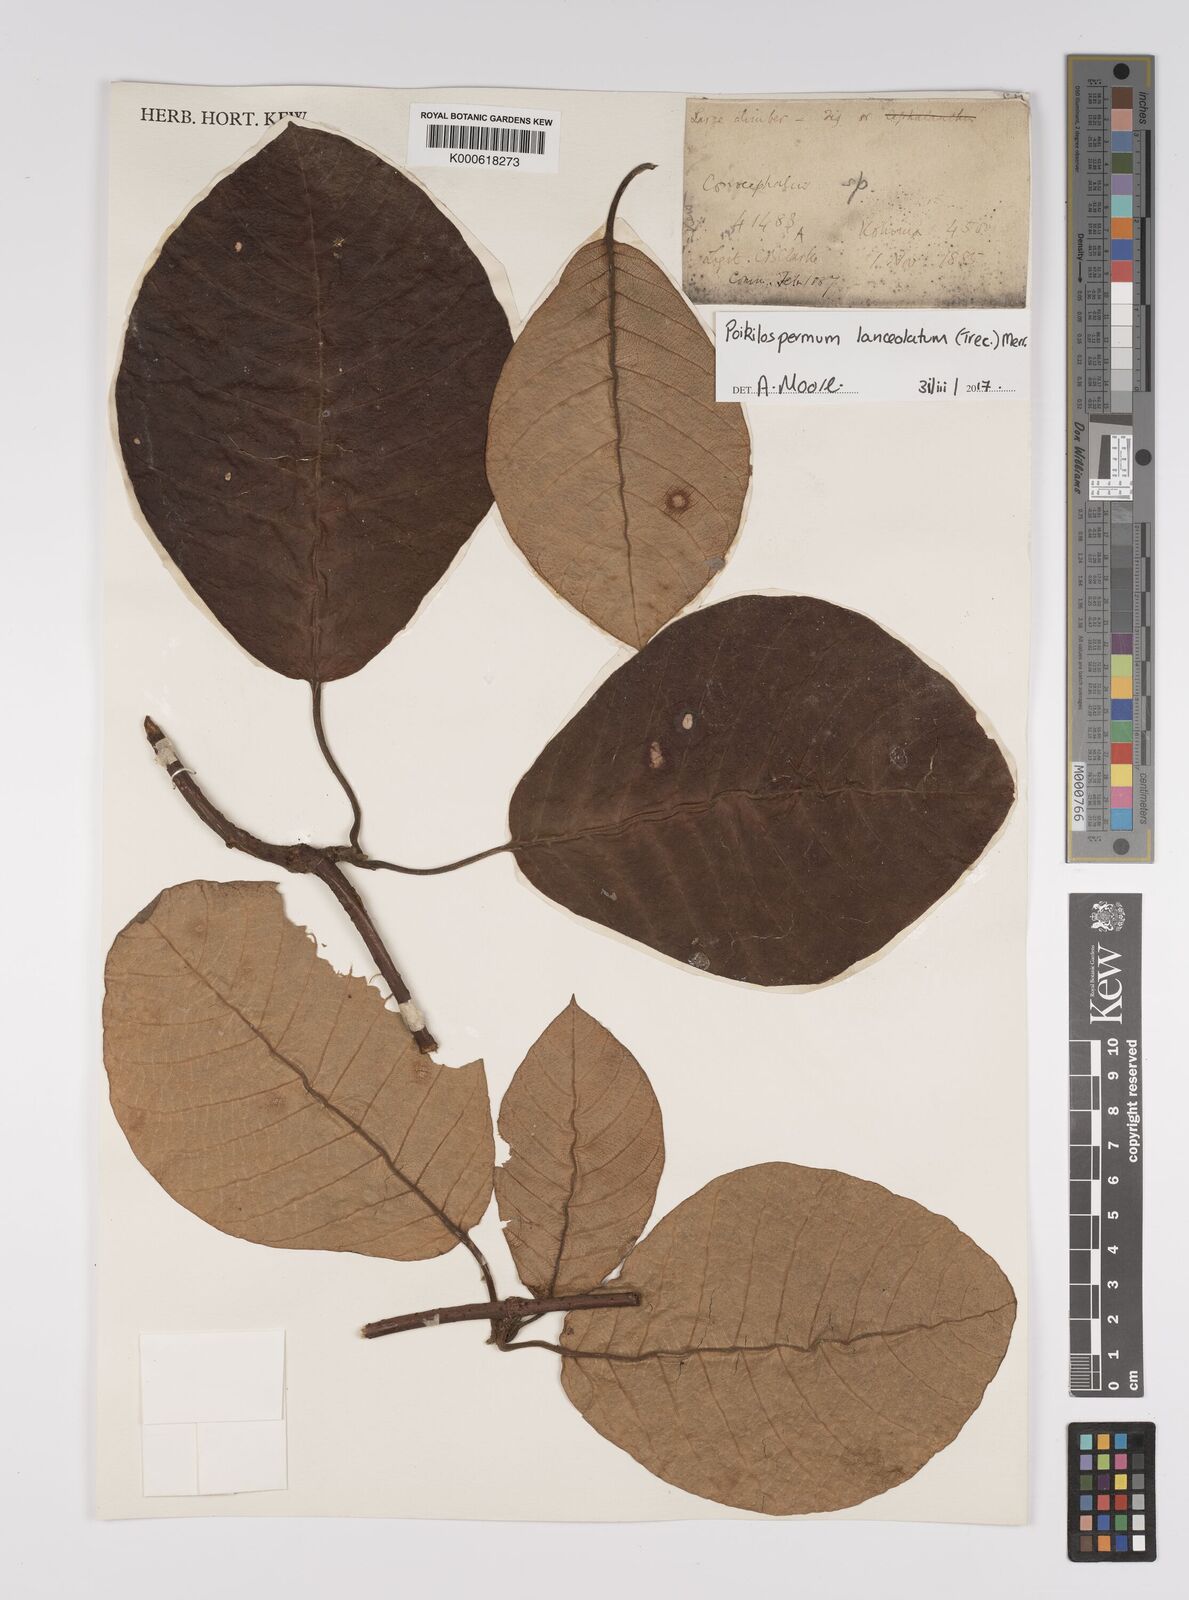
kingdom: Plantae
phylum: Tracheophyta
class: Magnoliopsida
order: Rosales
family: Urticaceae
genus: Poikilospermum
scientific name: Poikilospermum lanceolatum
